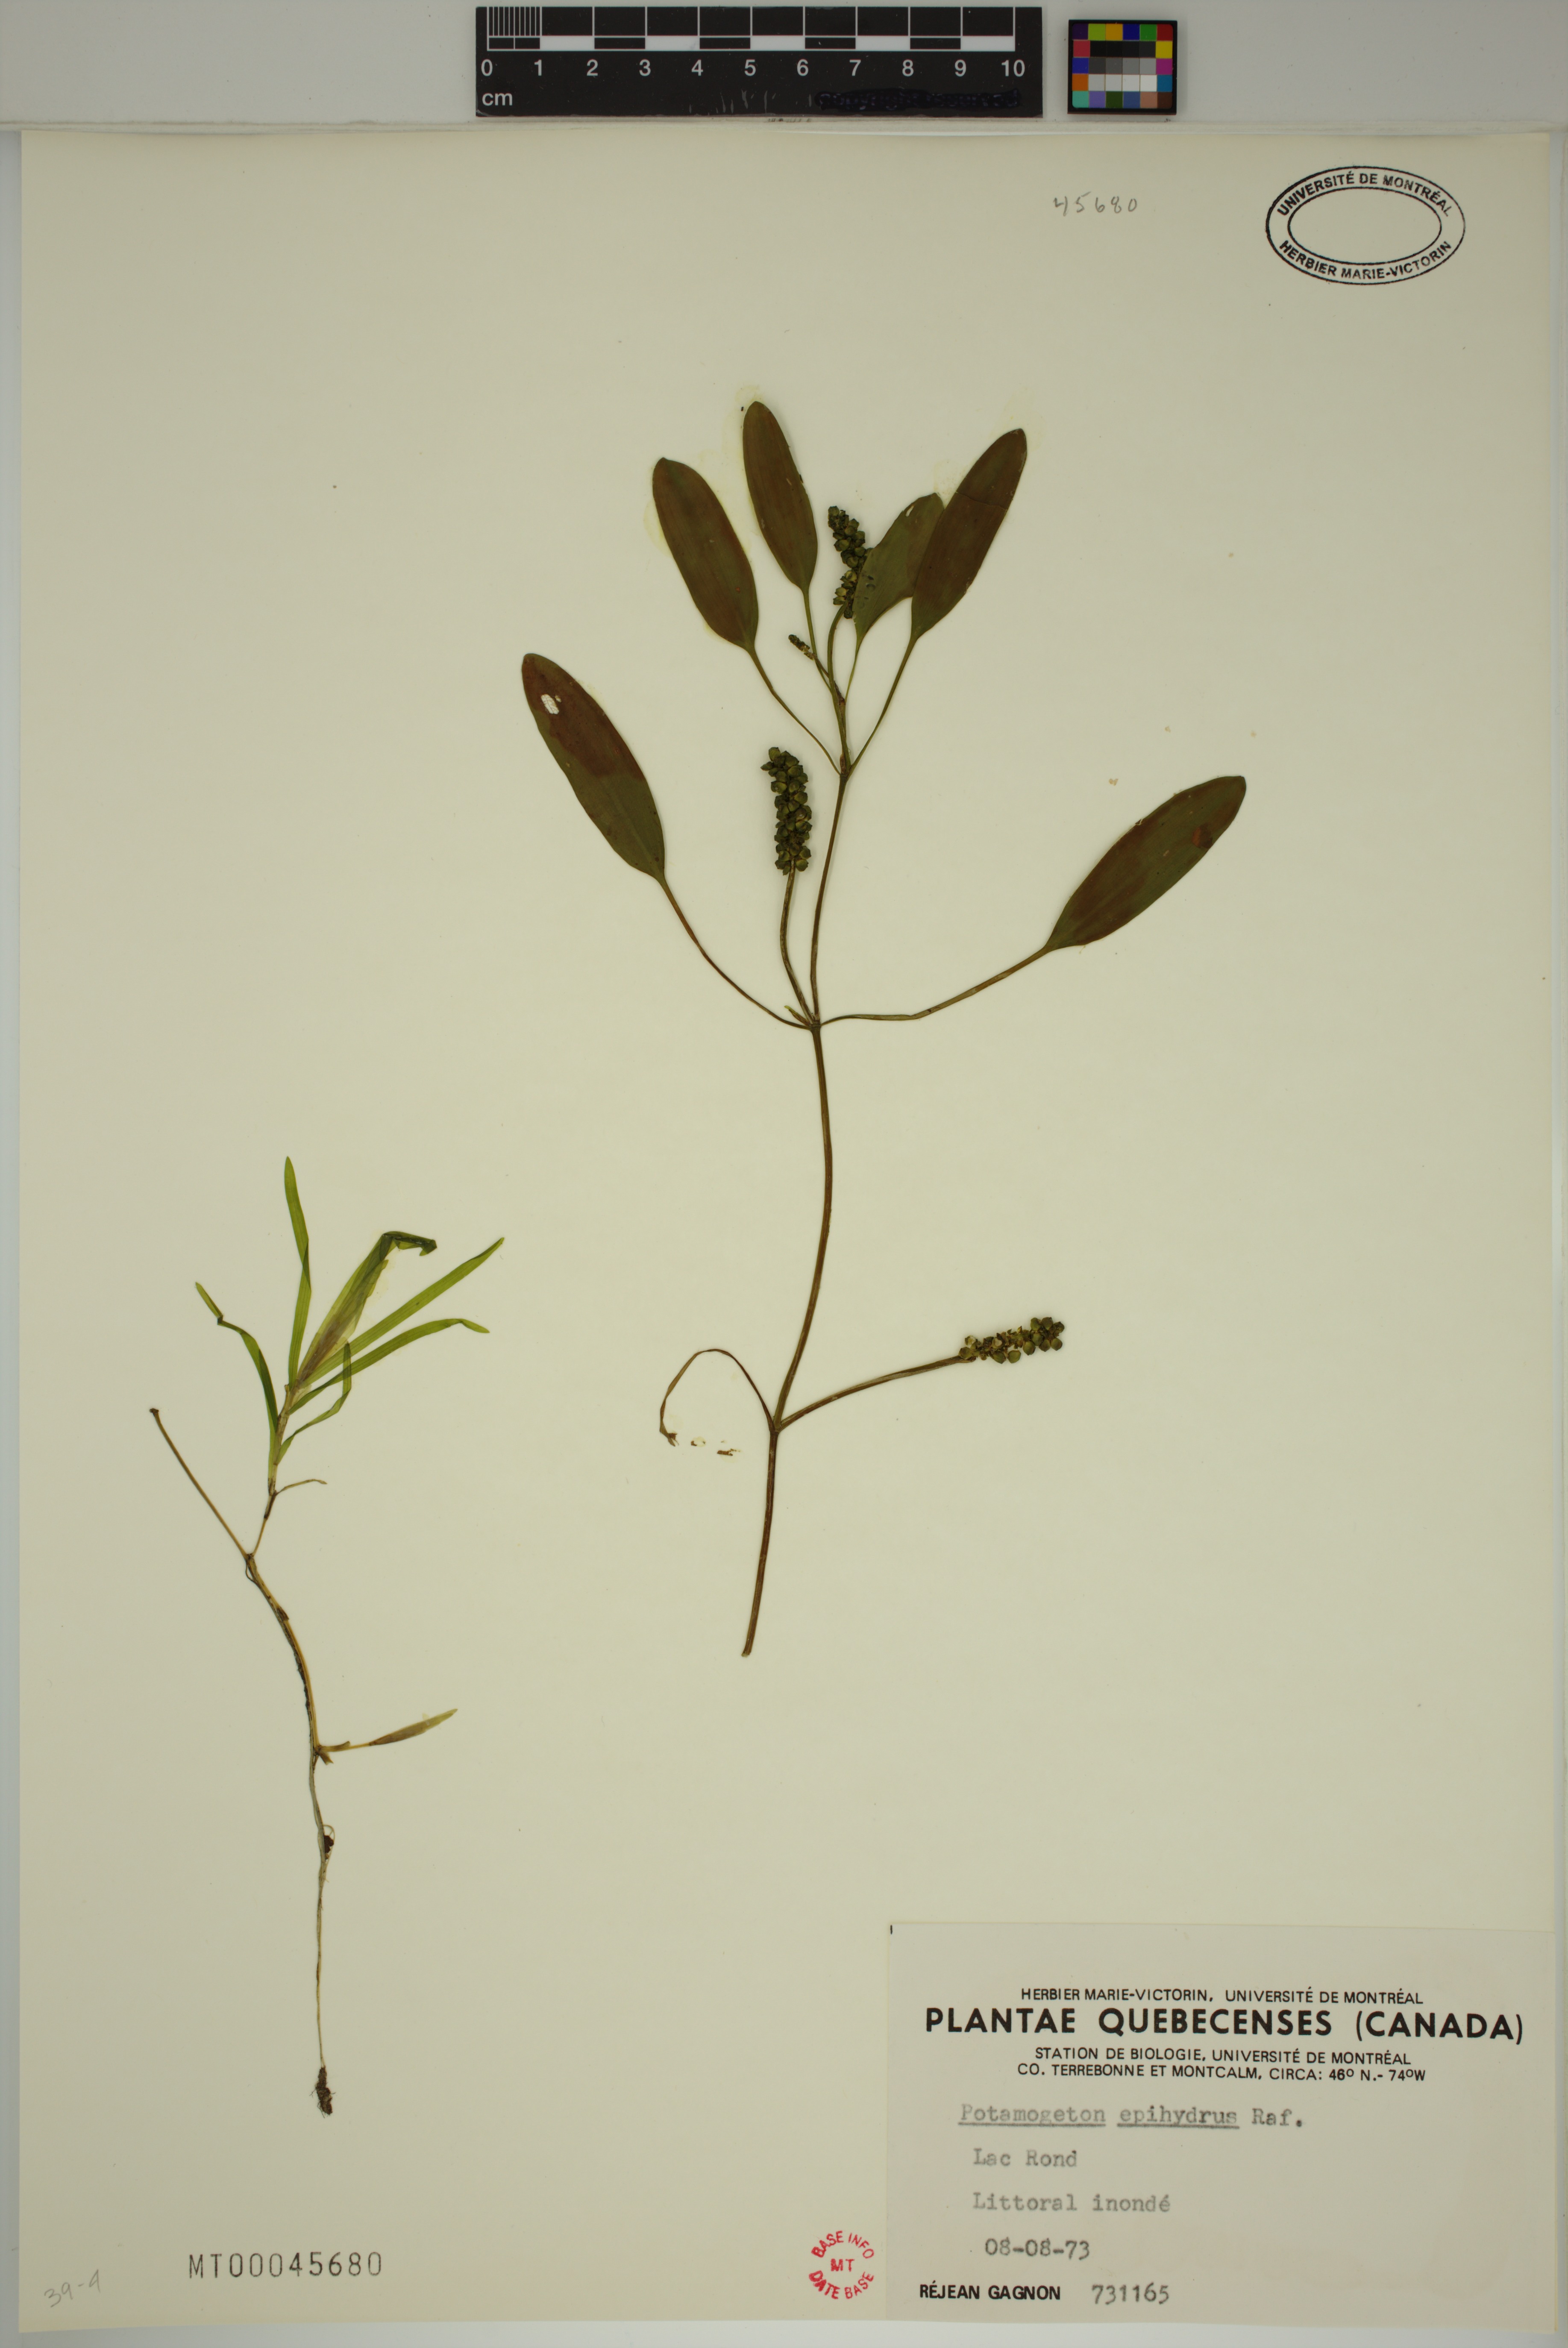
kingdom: Plantae
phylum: Tracheophyta
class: Liliopsida
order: Alismatales
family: Potamogetonaceae
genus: Potamogeton
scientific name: Potamogeton epihydrus
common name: American pondweed
